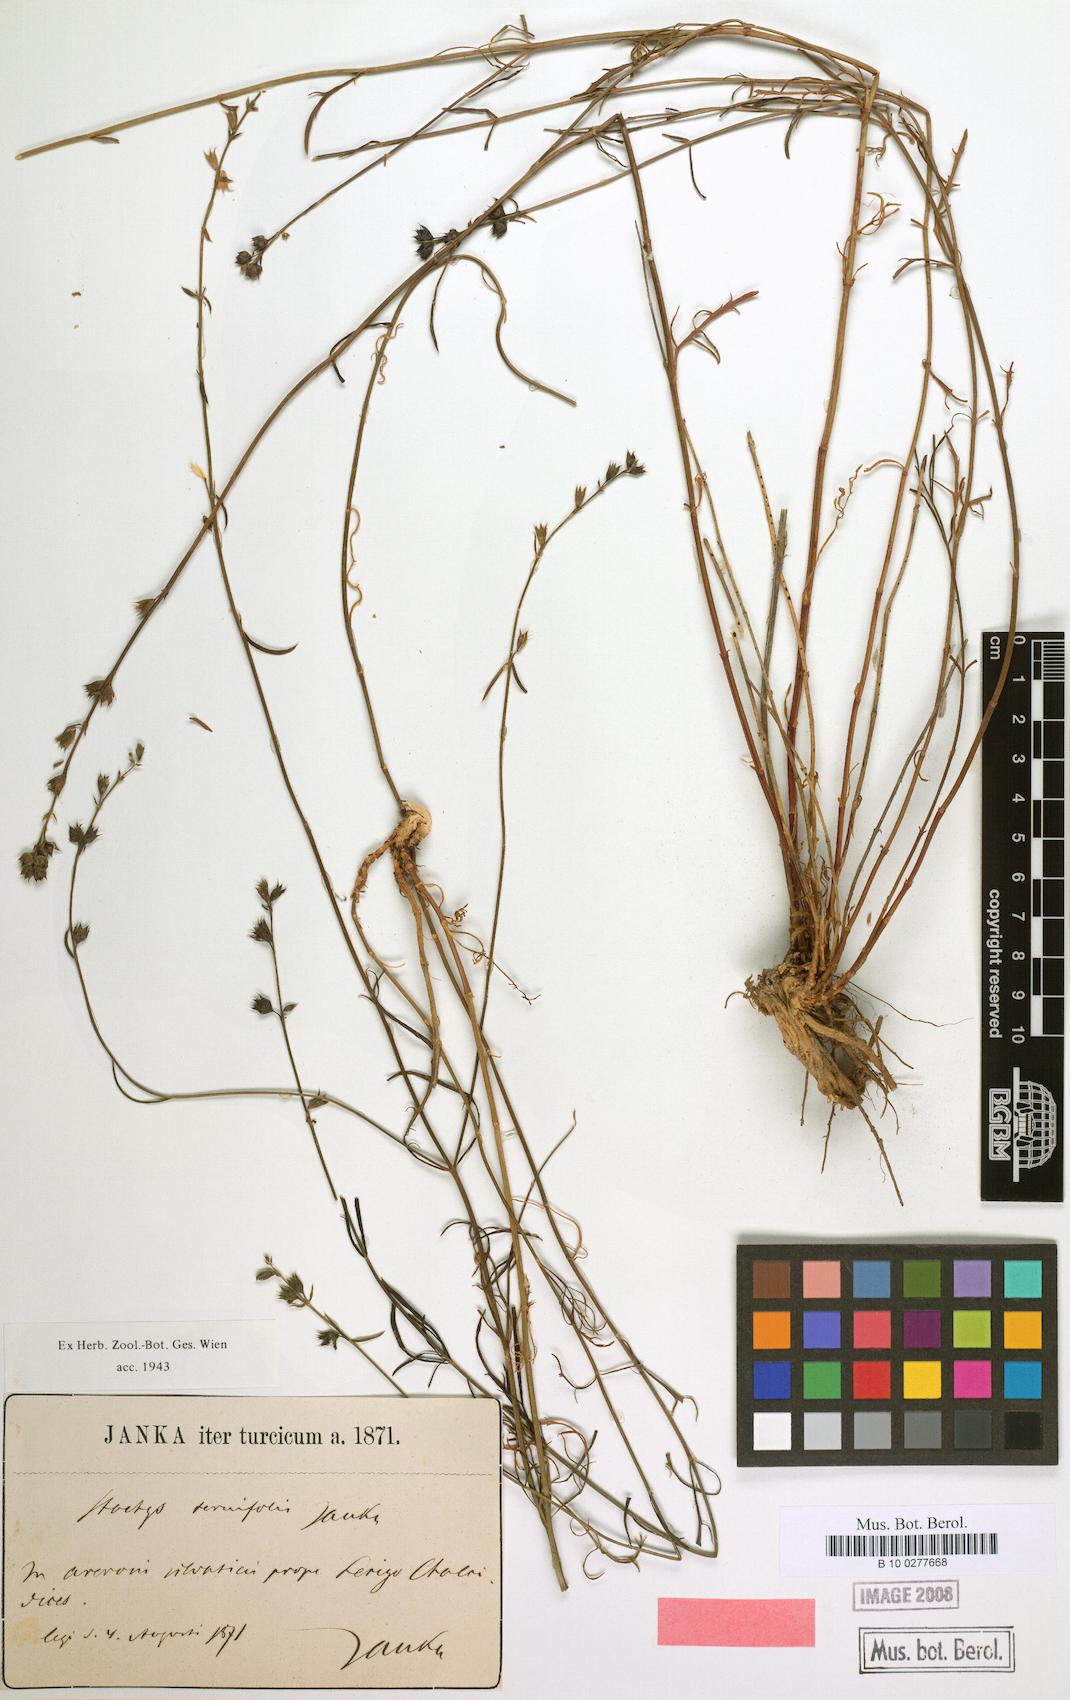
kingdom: Plantae
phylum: Tracheophyta
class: Magnoliopsida
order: Lamiales
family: Lamiaceae
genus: Stachys
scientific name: Stachys angustifolia
